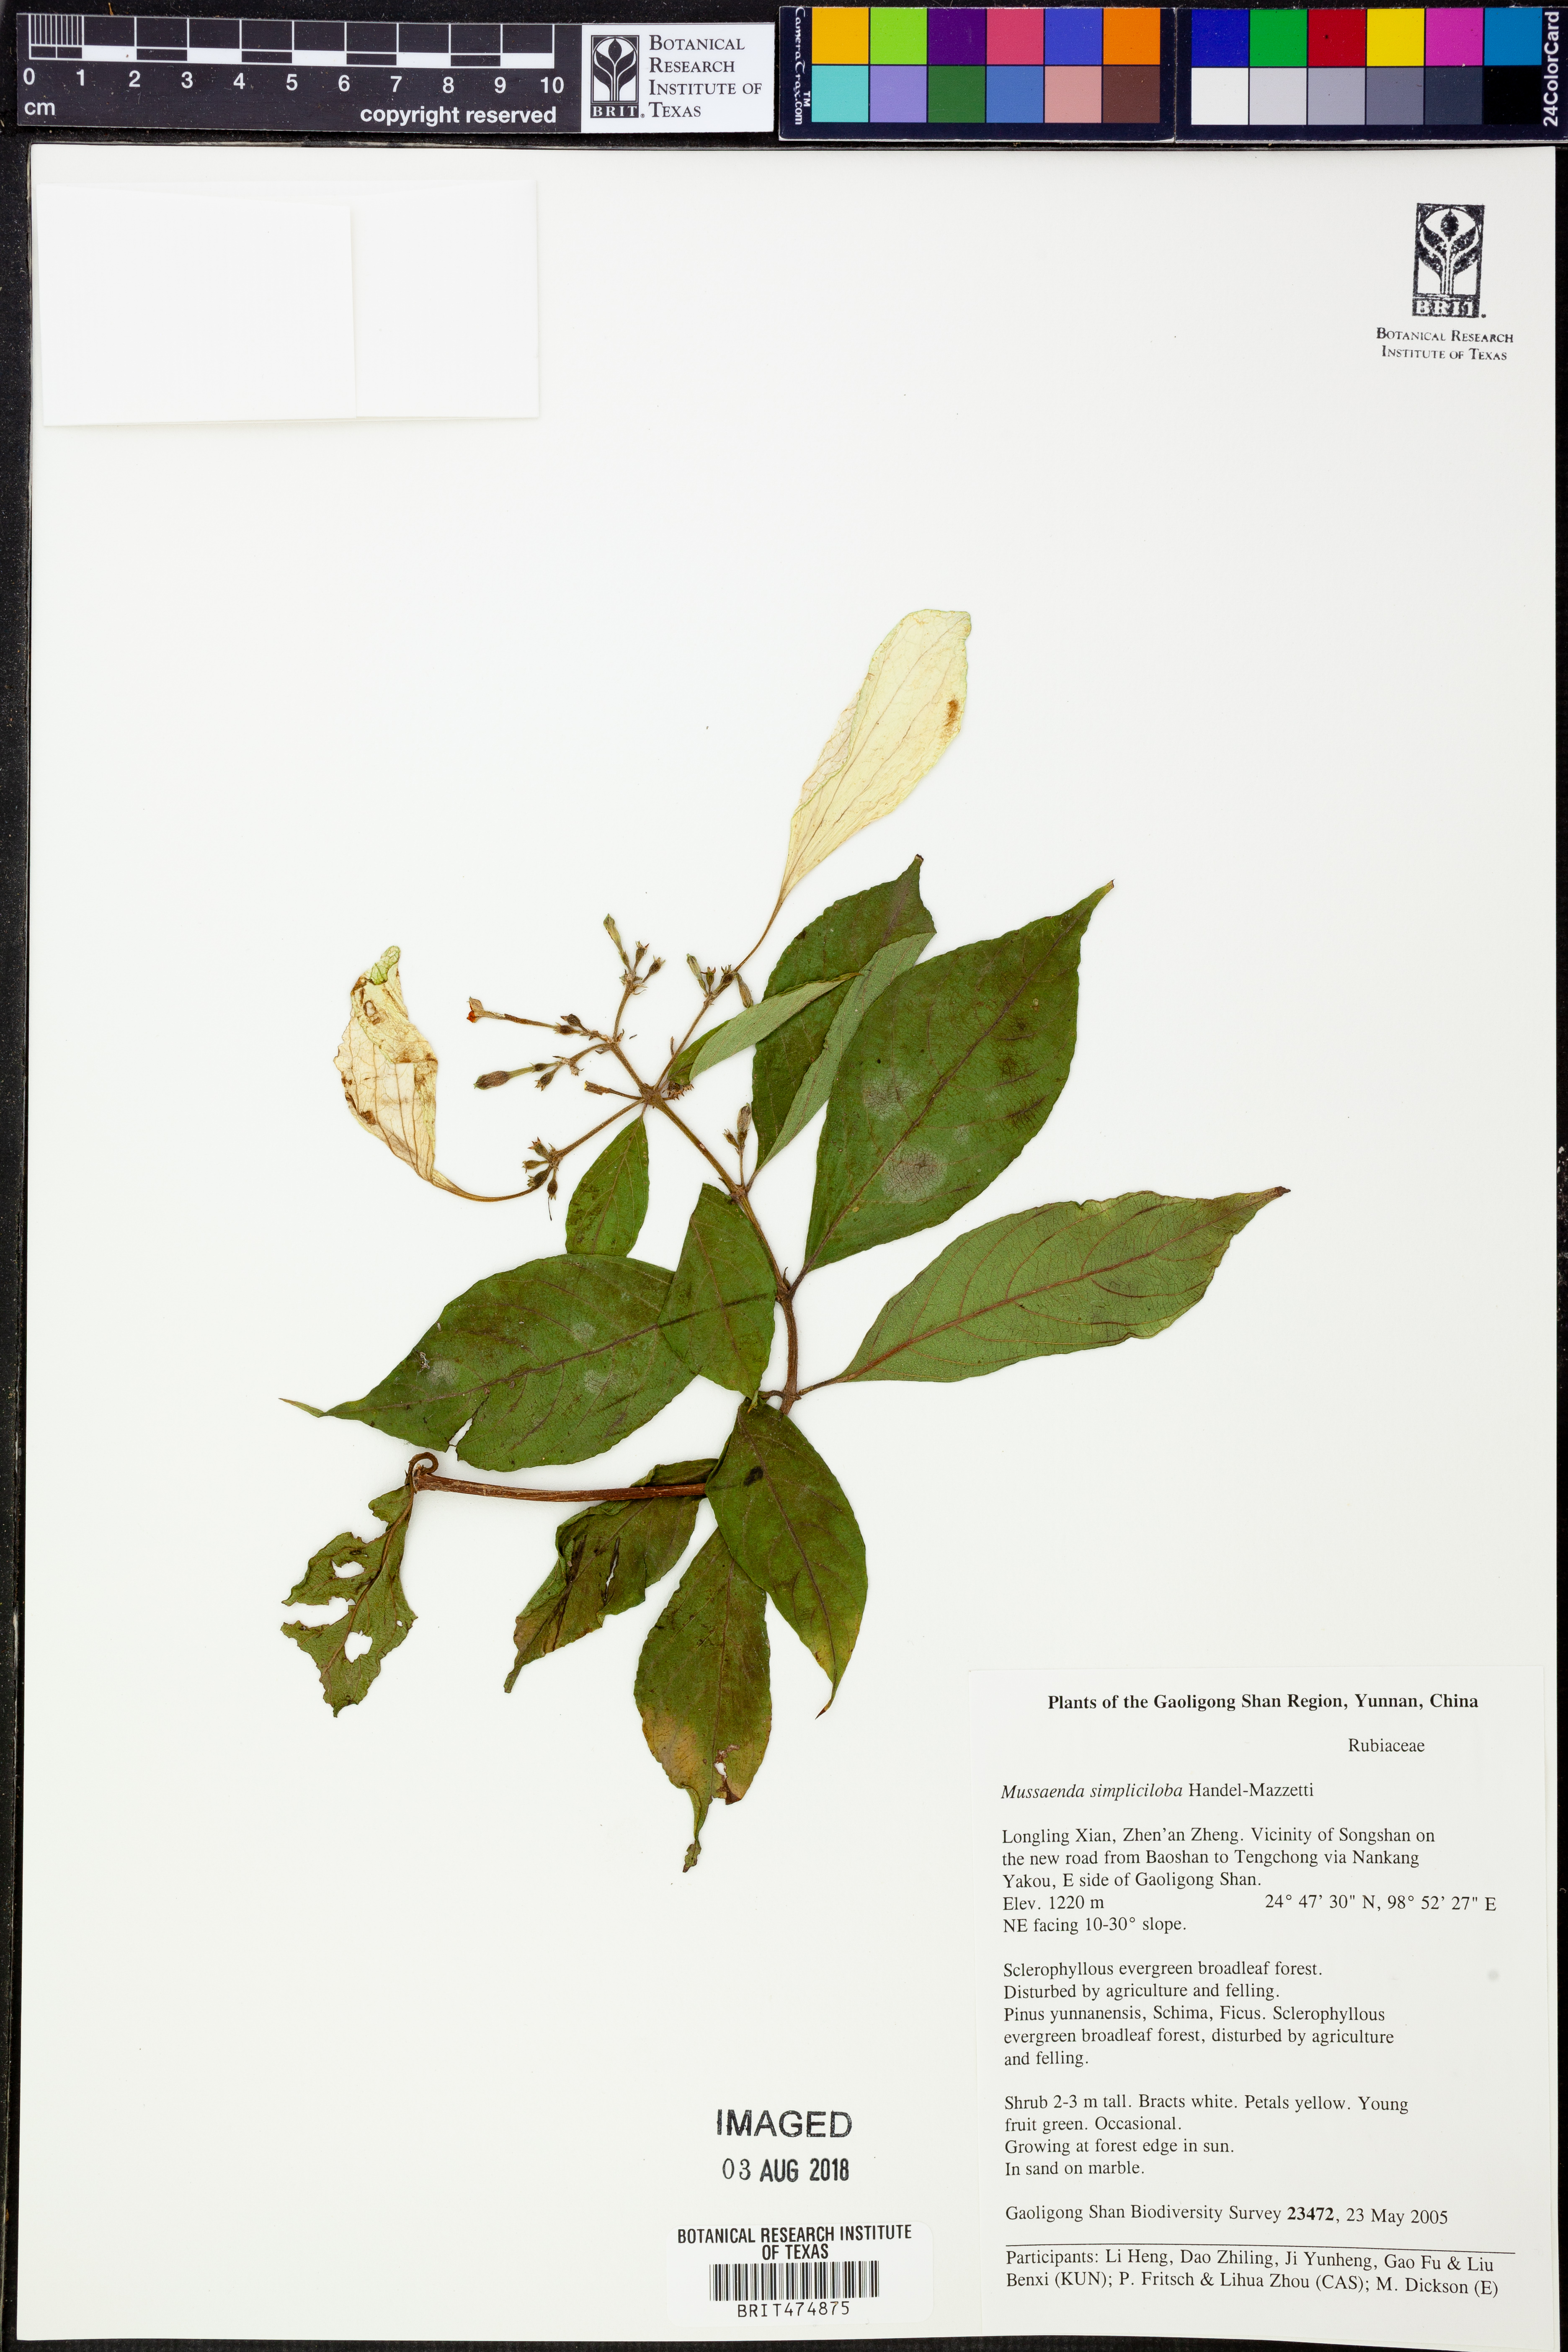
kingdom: Plantae
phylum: Tracheophyta
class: Magnoliopsida
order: Gentianales
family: Rubiaceae
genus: Mussaenda
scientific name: Mussaenda simpliciloba
